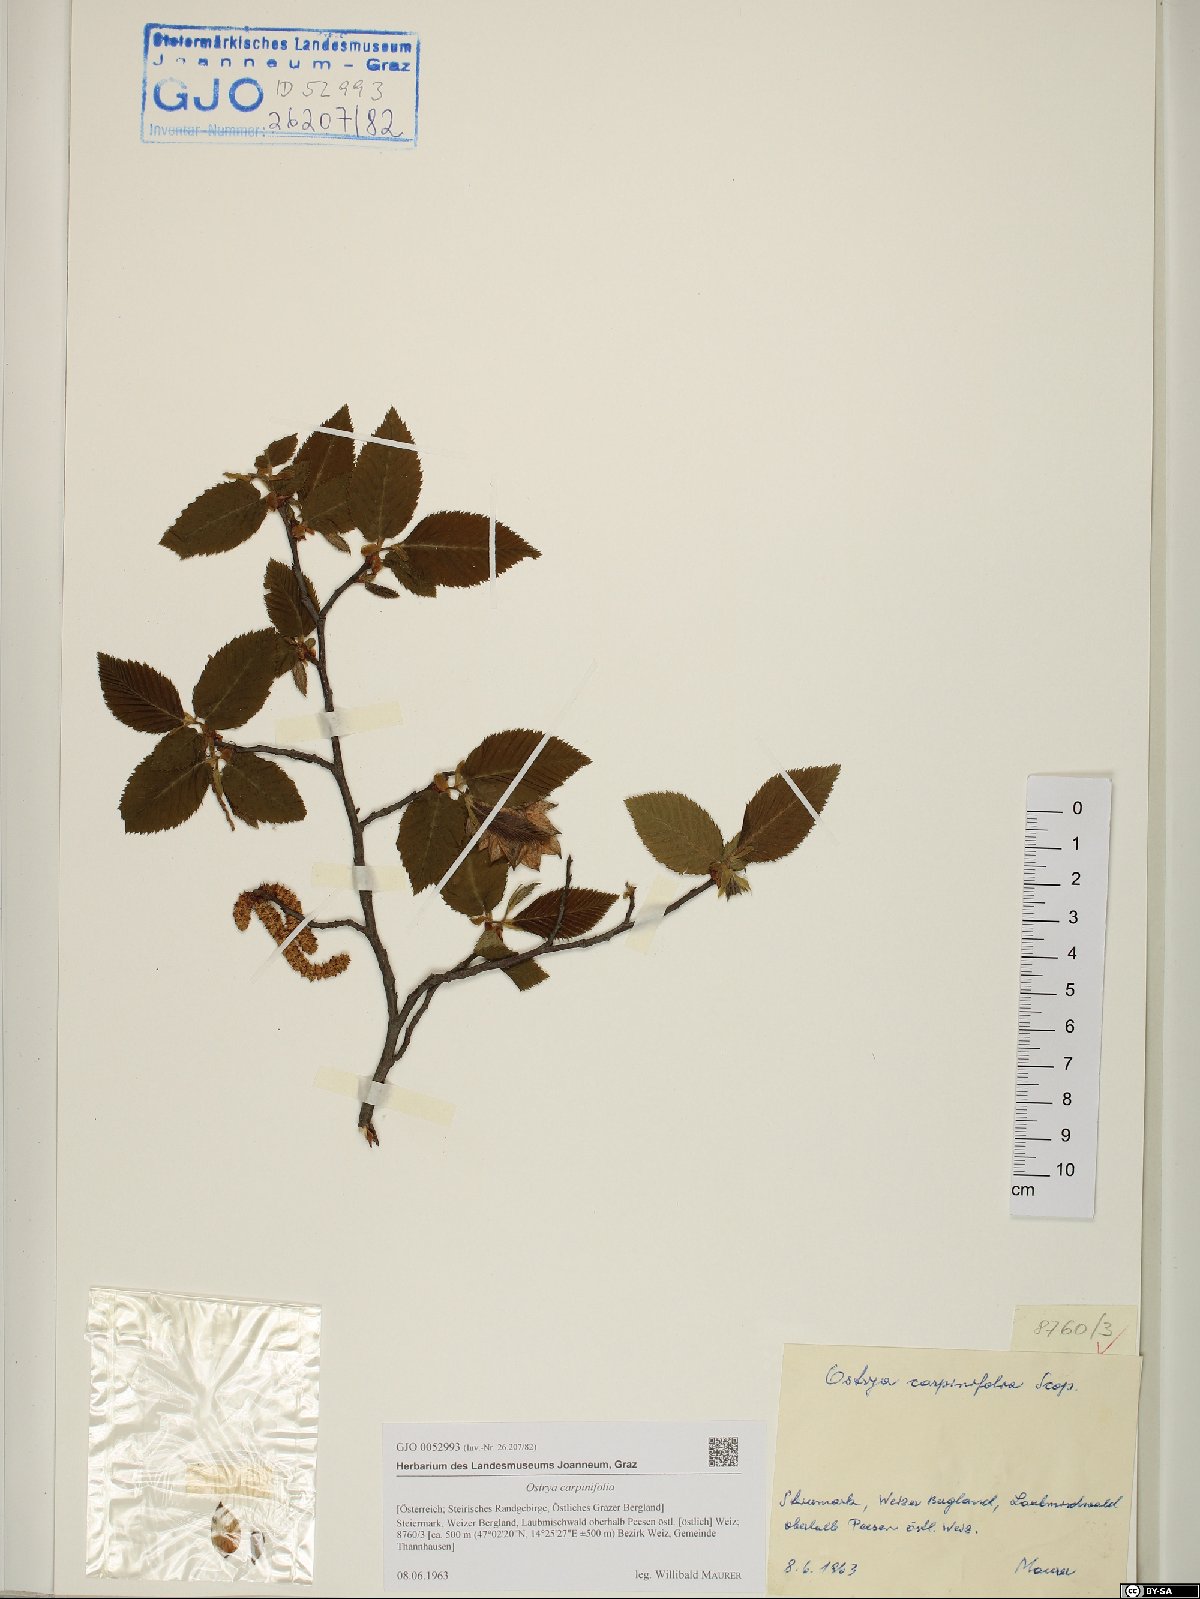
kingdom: Plantae
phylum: Tracheophyta
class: Magnoliopsida
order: Fagales
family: Betulaceae
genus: Ostrya
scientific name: Ostrya carpinifolia
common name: European hop-hornbeam
